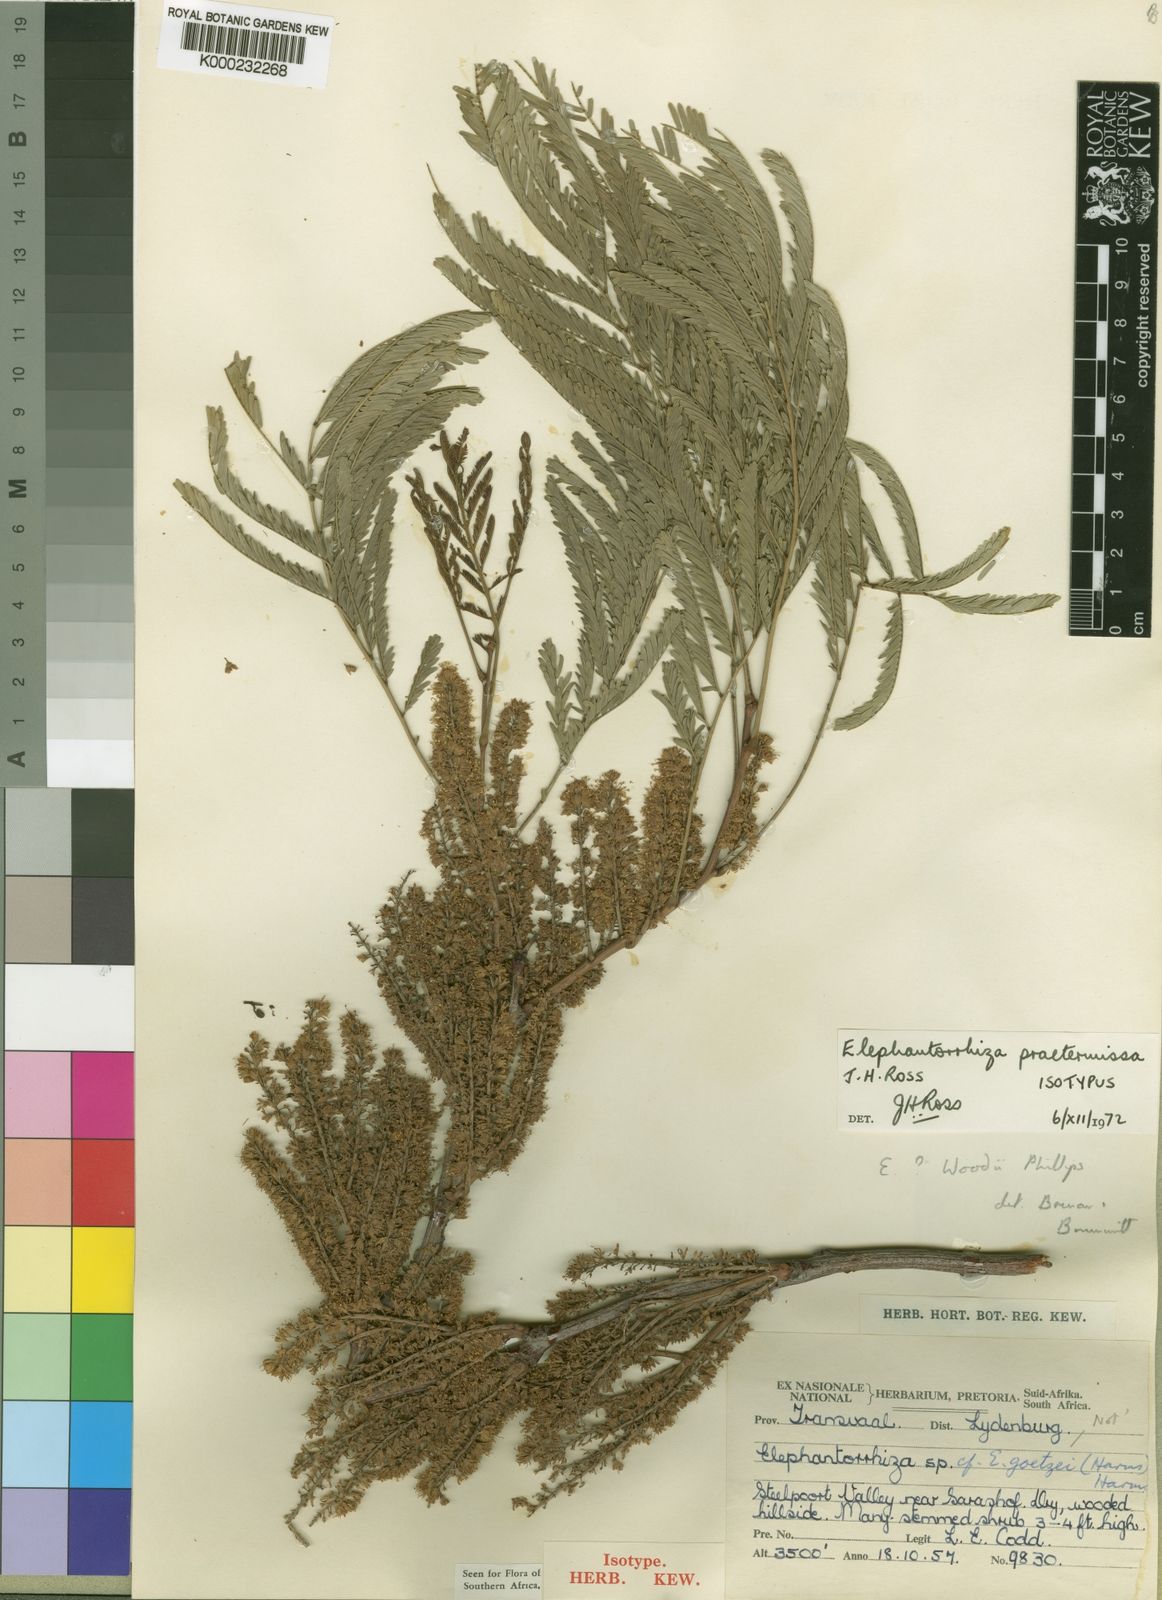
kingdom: Plantae
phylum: Tracheophyta
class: Magnoliopsida
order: Fabales
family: Fabaceae
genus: Elephantorrhiza
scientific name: Elephantorrhiza praetermissa
